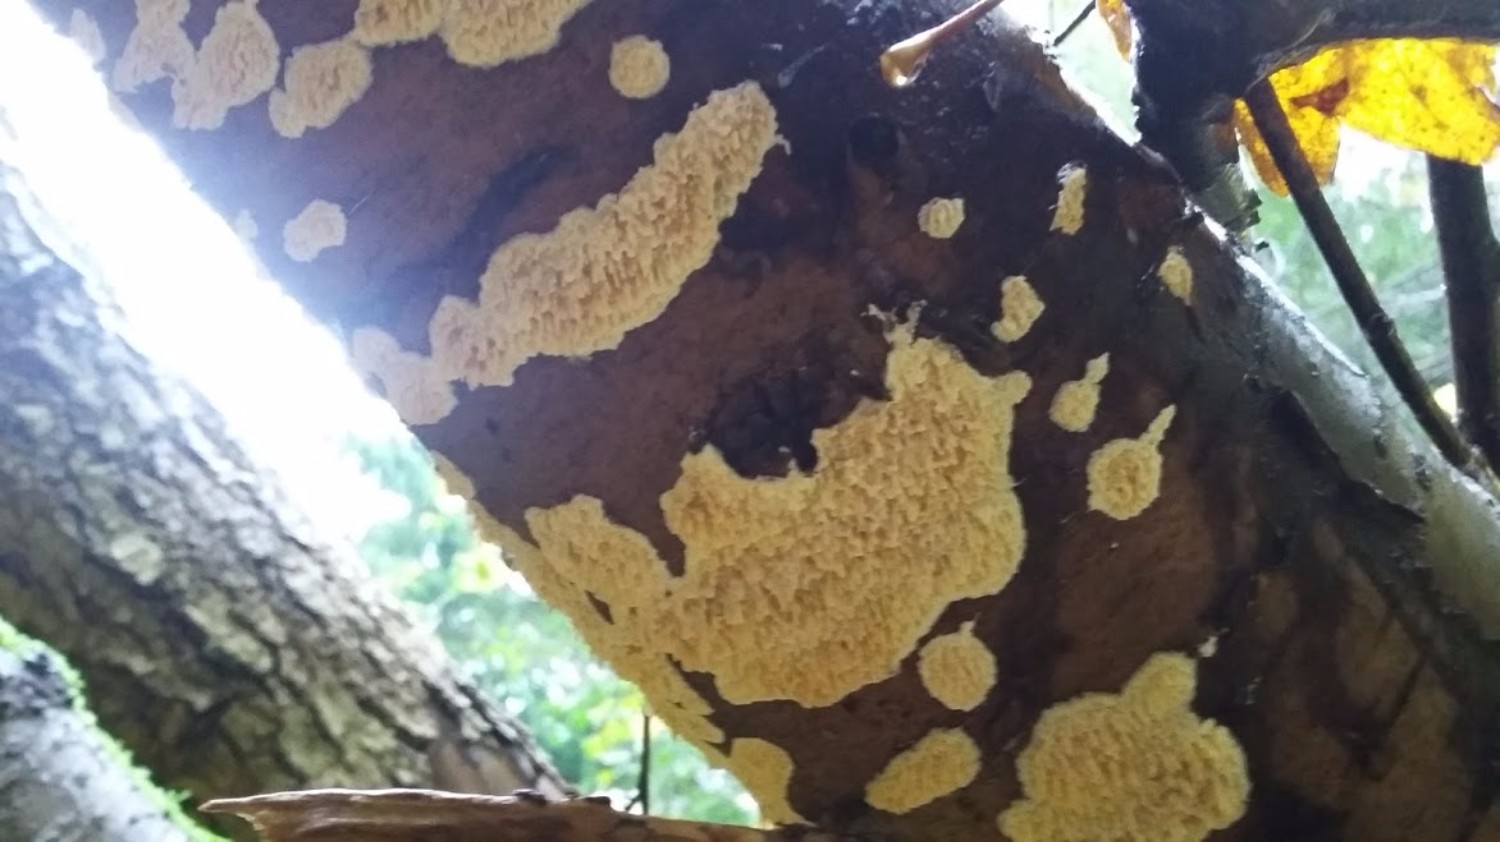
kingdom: Fungi
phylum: Basidiomycota
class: Agaricomycetes
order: Hymenochaetales
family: Schizoporaceae
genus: Xylodon
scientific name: Xylodon radula
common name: grovtandet kalkskind
